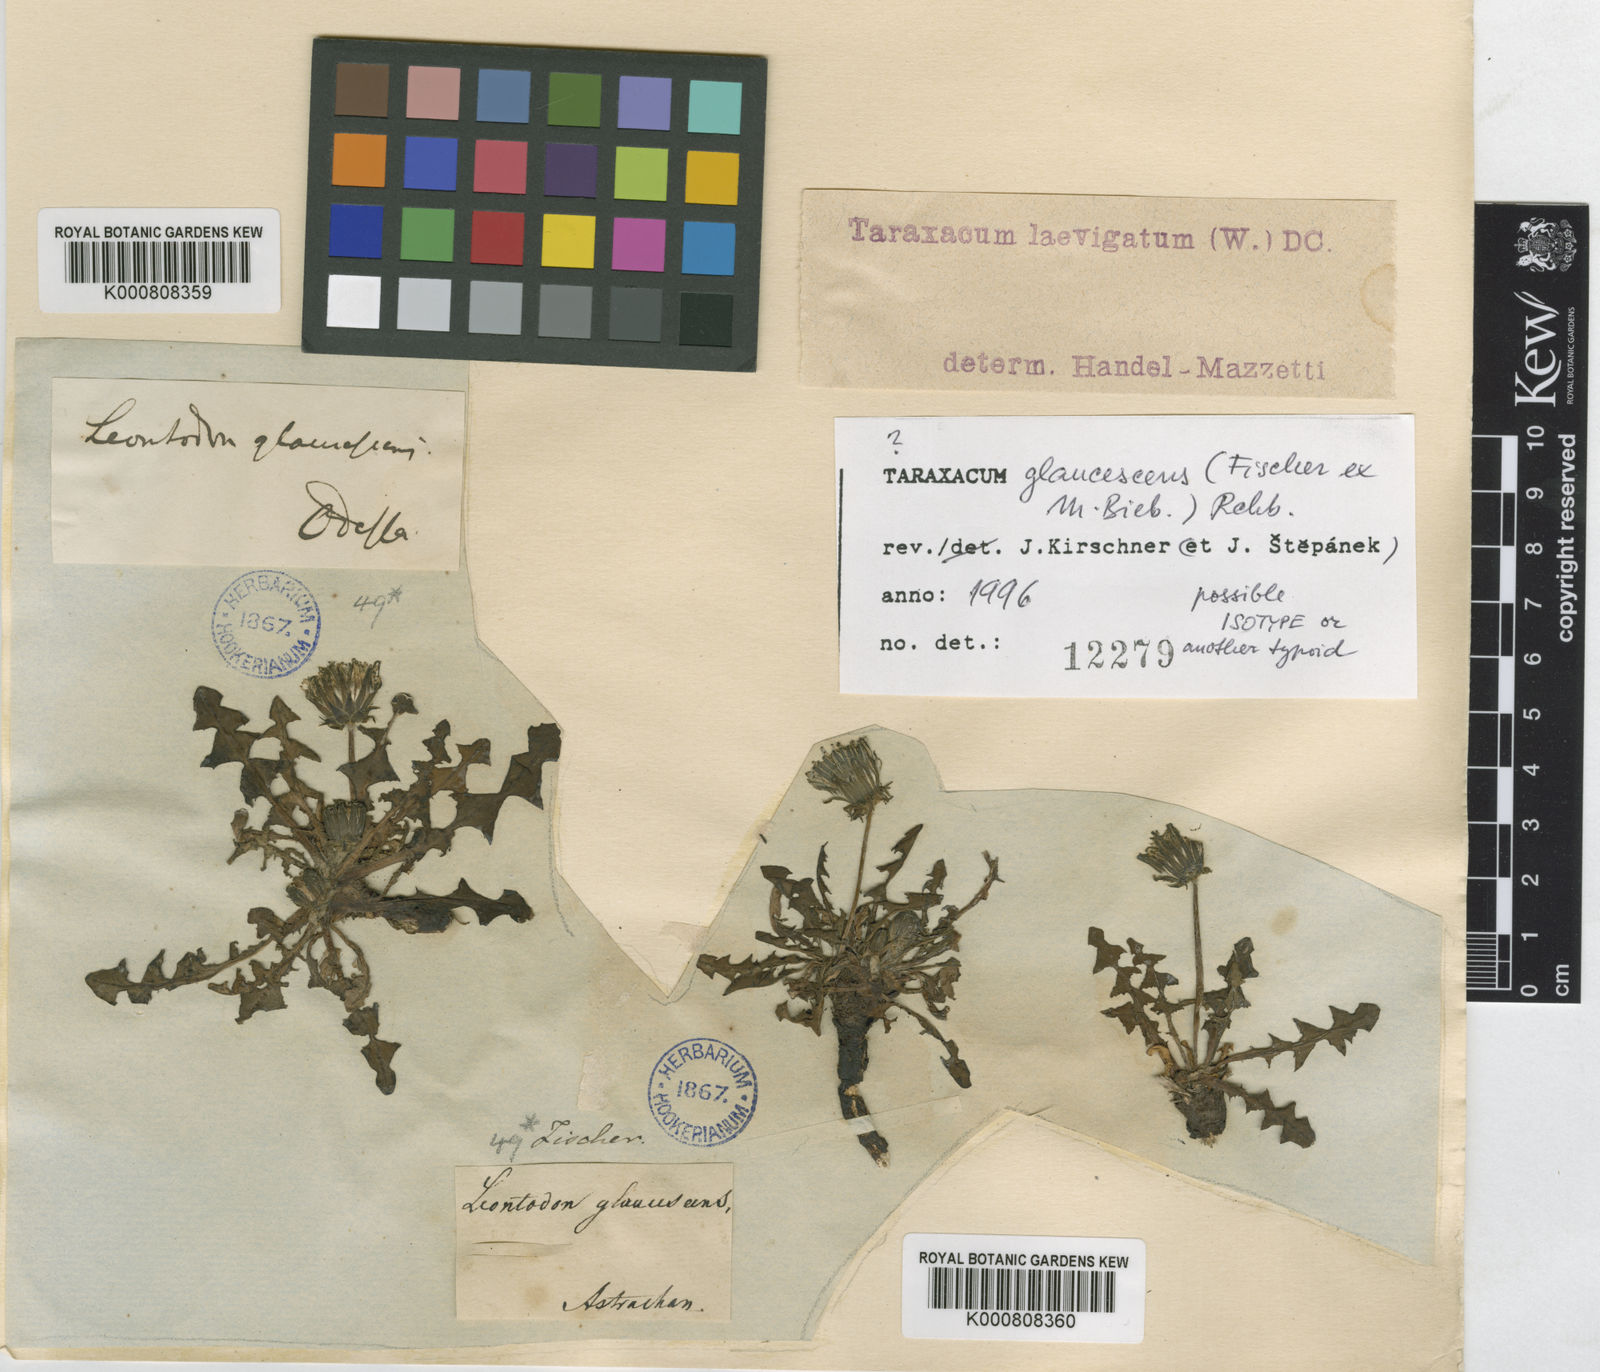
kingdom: Plantae
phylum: Tracheophyta
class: Magnoliopsida
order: Asterales
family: Asteraceae
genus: Taraxacum
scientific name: Taraxacum glaucescens
